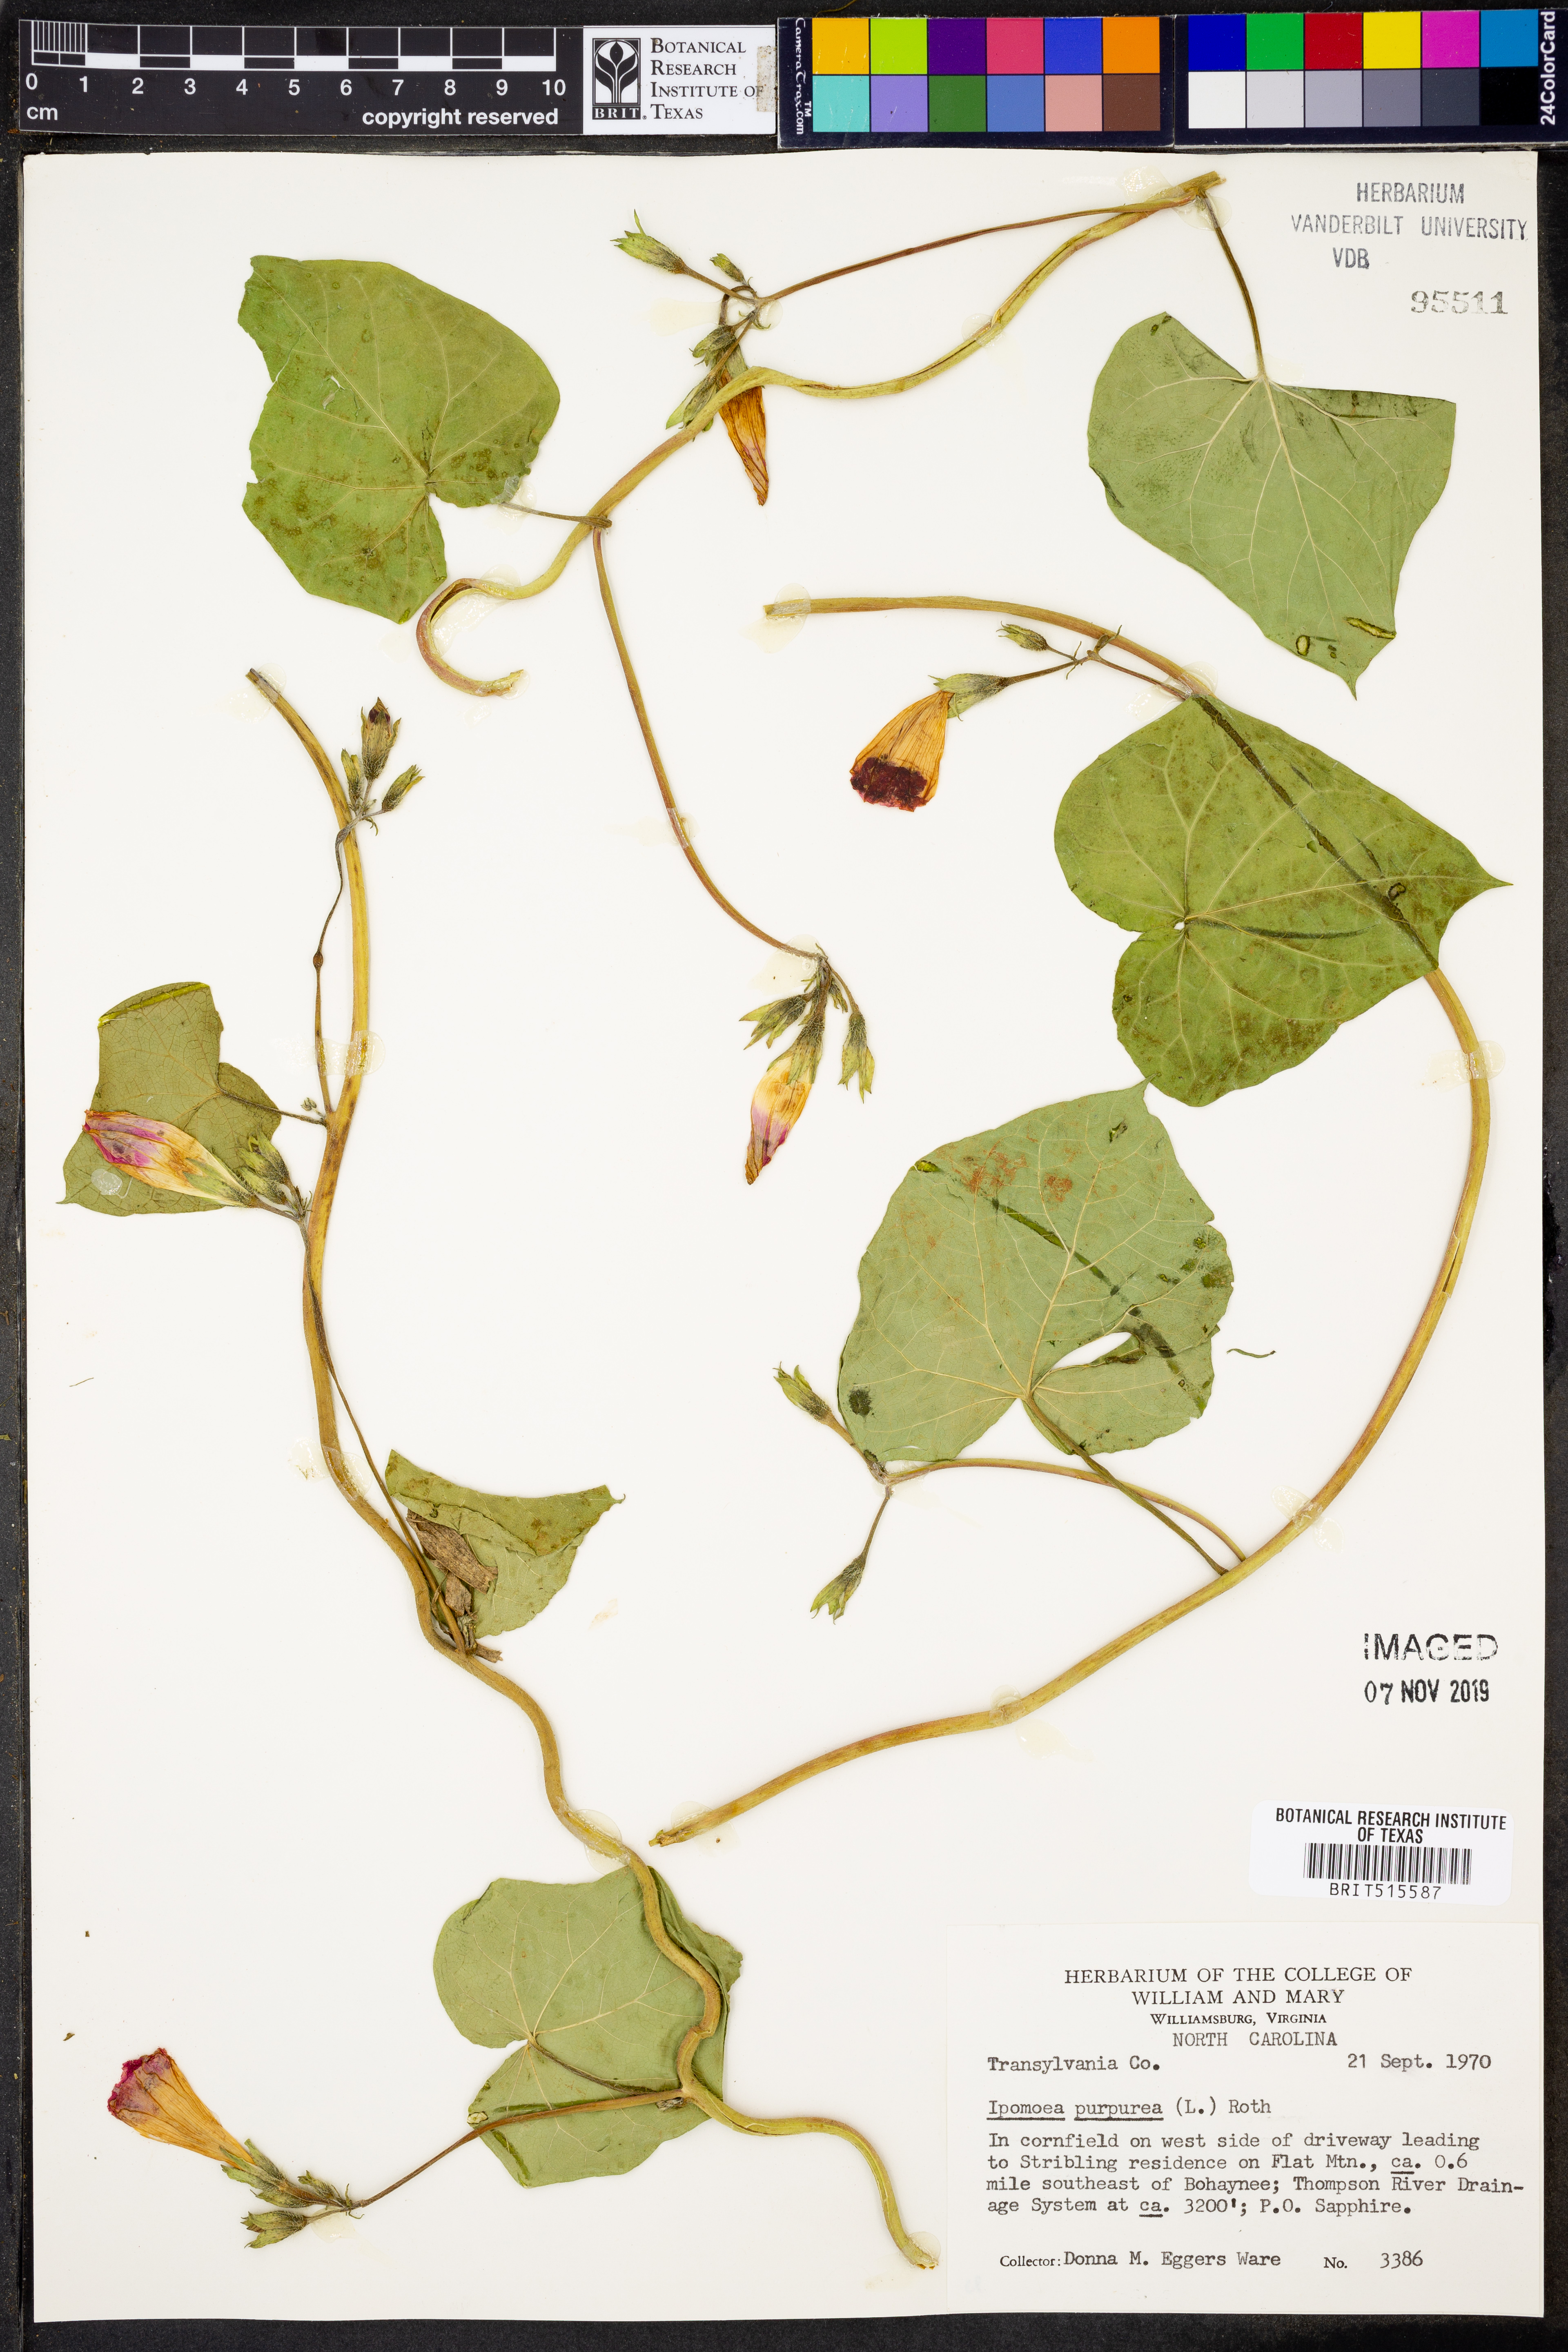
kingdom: Plantae
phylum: Tracheophyta
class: Magnoliopsida
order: Solanales
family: Convolvulaceae
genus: Ipomoea
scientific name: Ipomoea purpurea
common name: Common morning-glory
